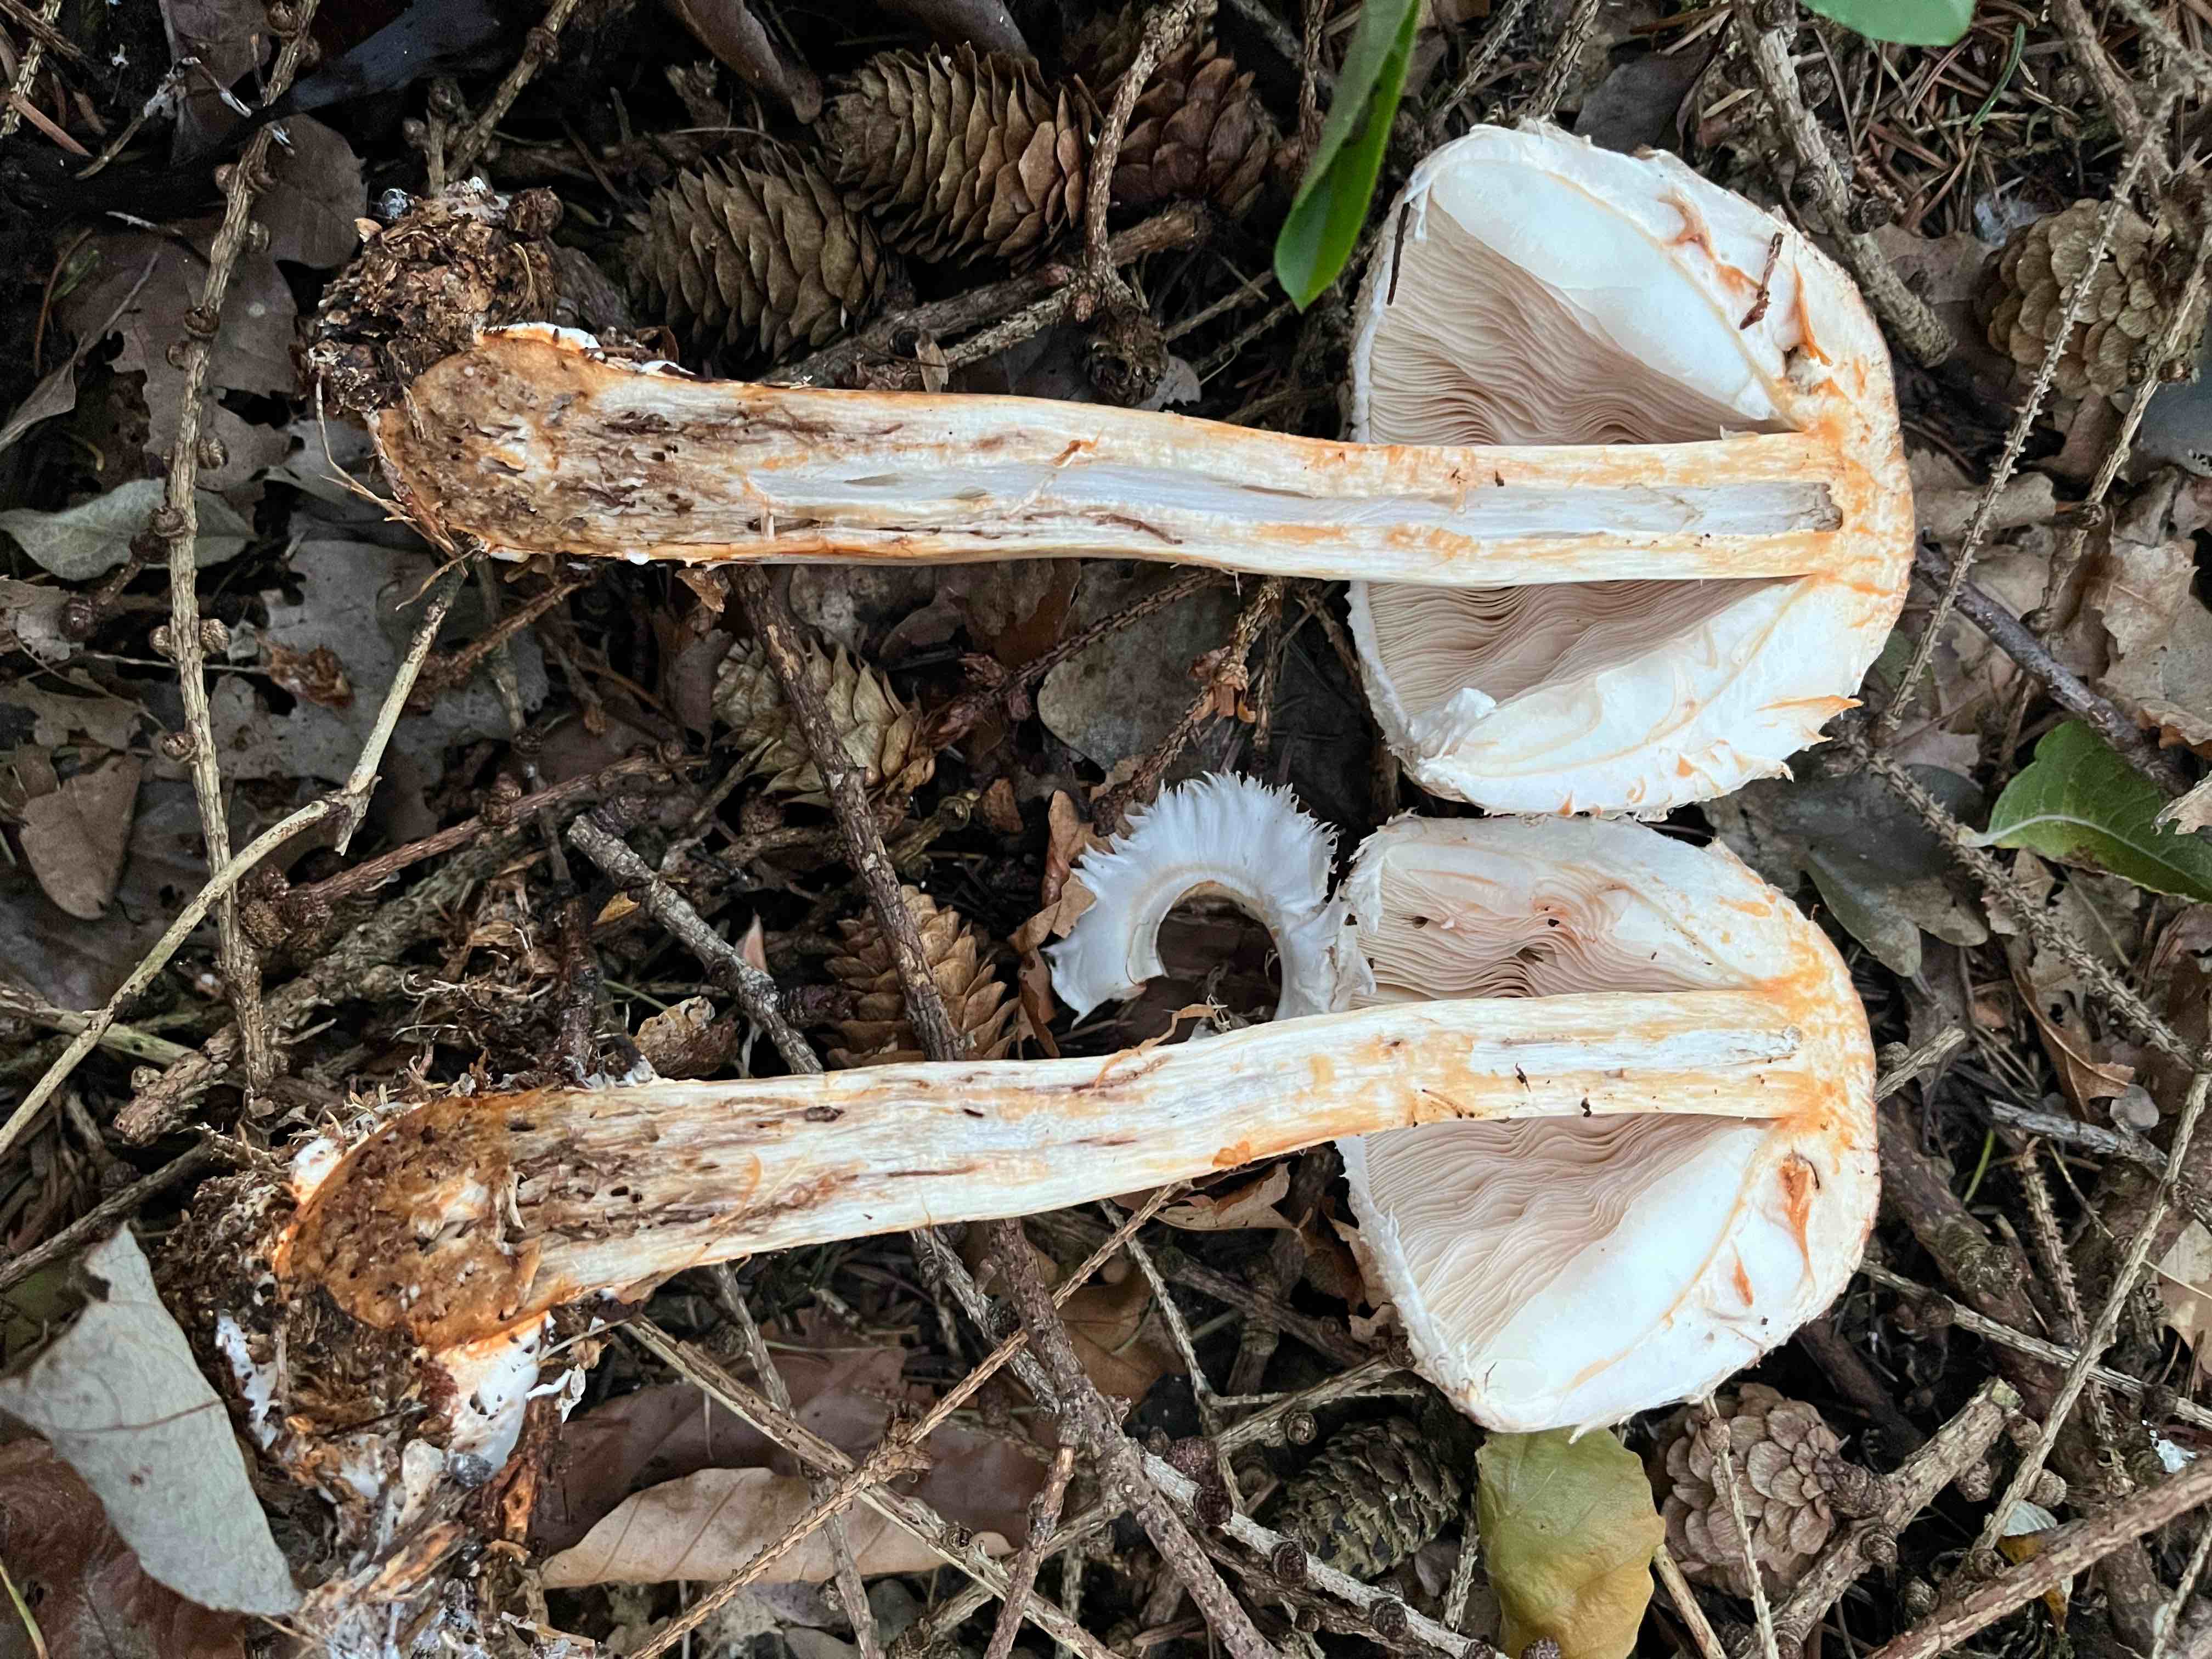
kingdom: Fungi
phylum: Basidiomycota
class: Agaricomycetes
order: Agaricales
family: Agaricaceae
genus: Chlorophyllum
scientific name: Chlorophyllum rhacodes
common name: ægte rabarberhat
